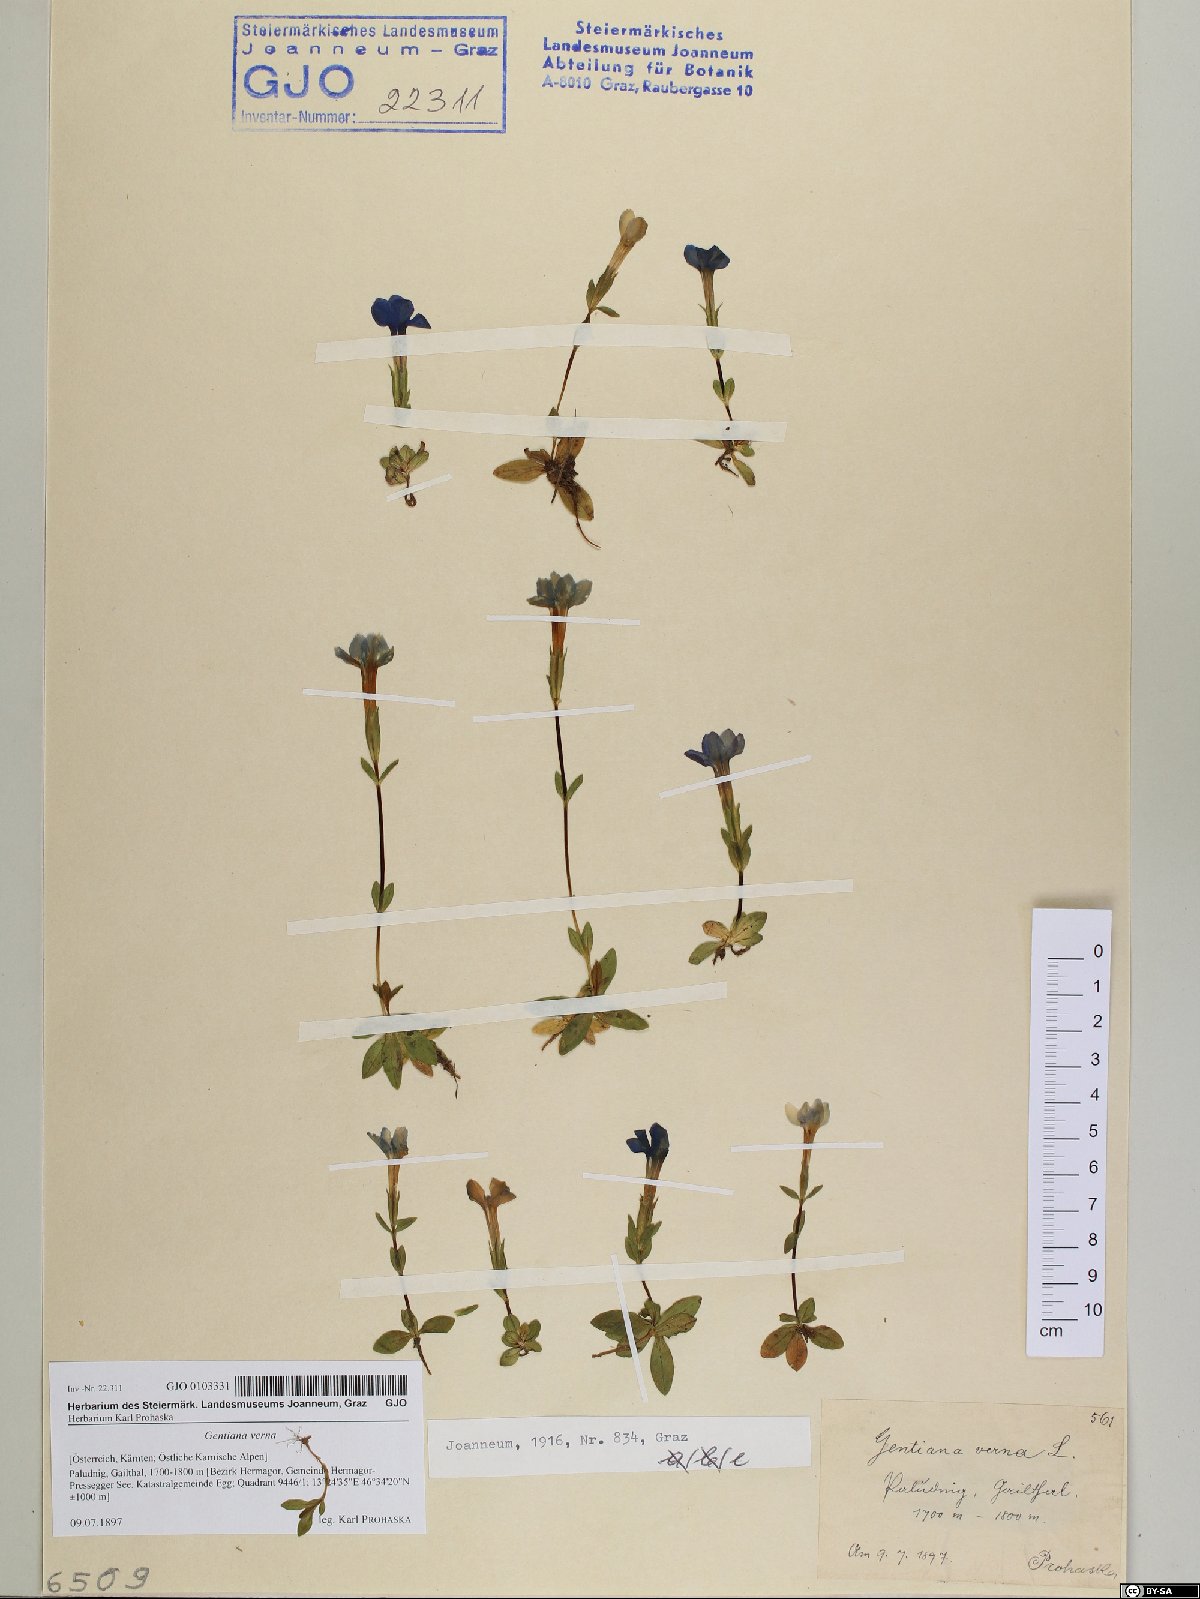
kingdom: Plantae
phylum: Tracheophyta
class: Magnoliopsida
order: Gentianales
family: Gentianaceae
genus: Gentiana
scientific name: Gentiana verna
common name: Spring gentian
